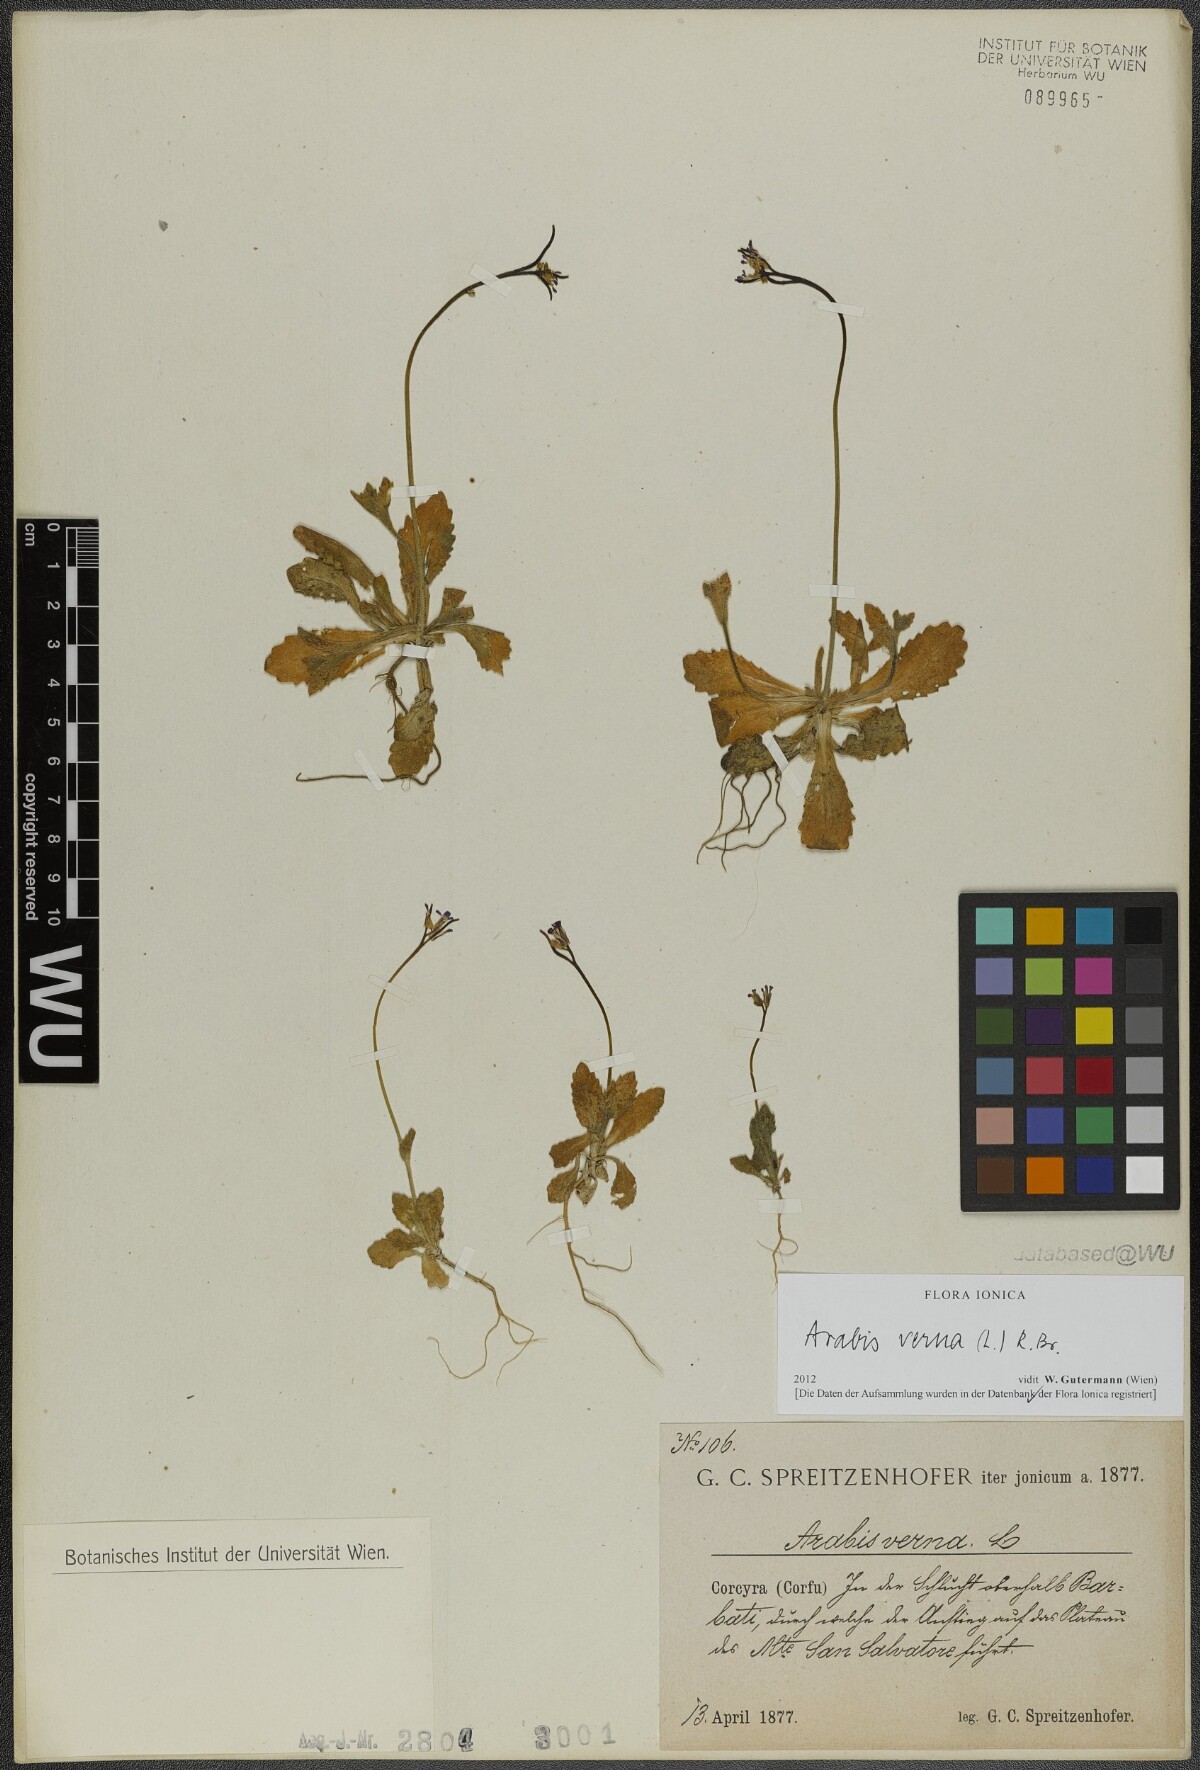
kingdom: Plantae
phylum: Tracheophyta
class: Magnoliopsida
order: Brassicales
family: Brassicaceae
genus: Arabis
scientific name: Arabis verna
